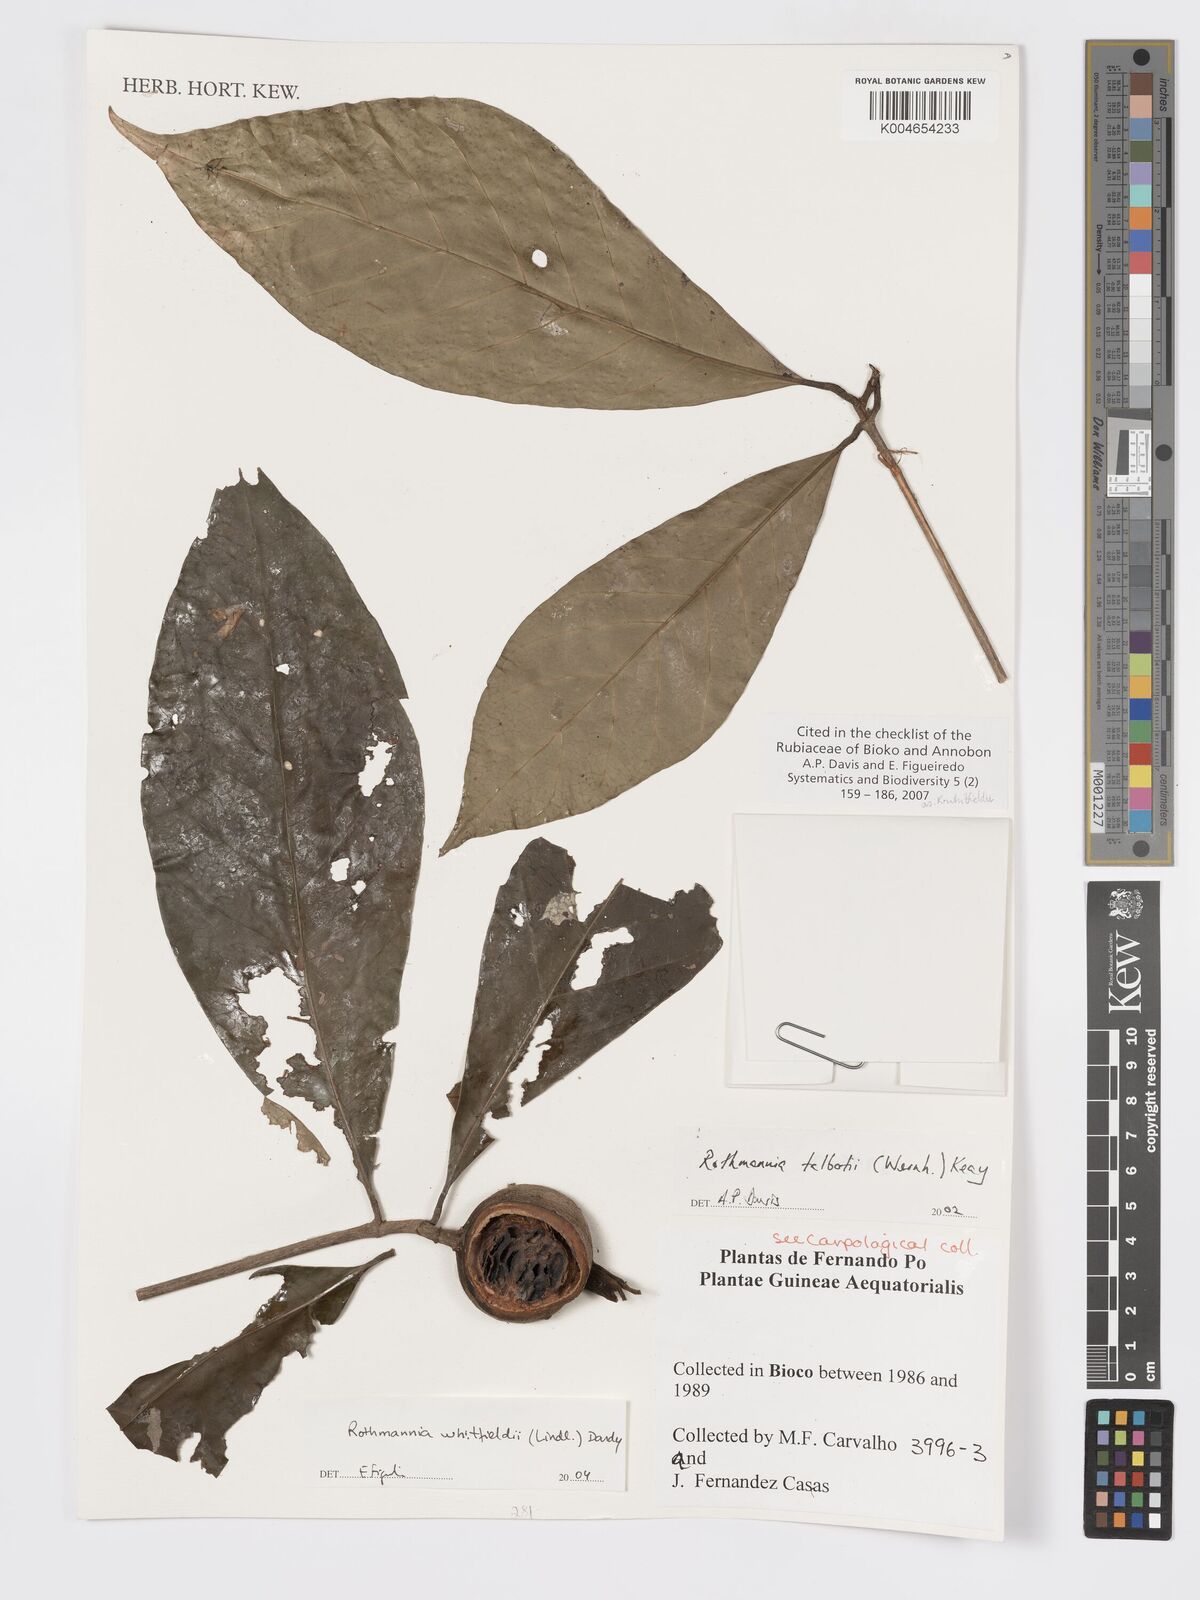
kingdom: Plantae
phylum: Tracheophyta
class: Magnoliopsida
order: Gentianales
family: Rubiaceae
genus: Rothmannia
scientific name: Rothmannia whitfieldii
